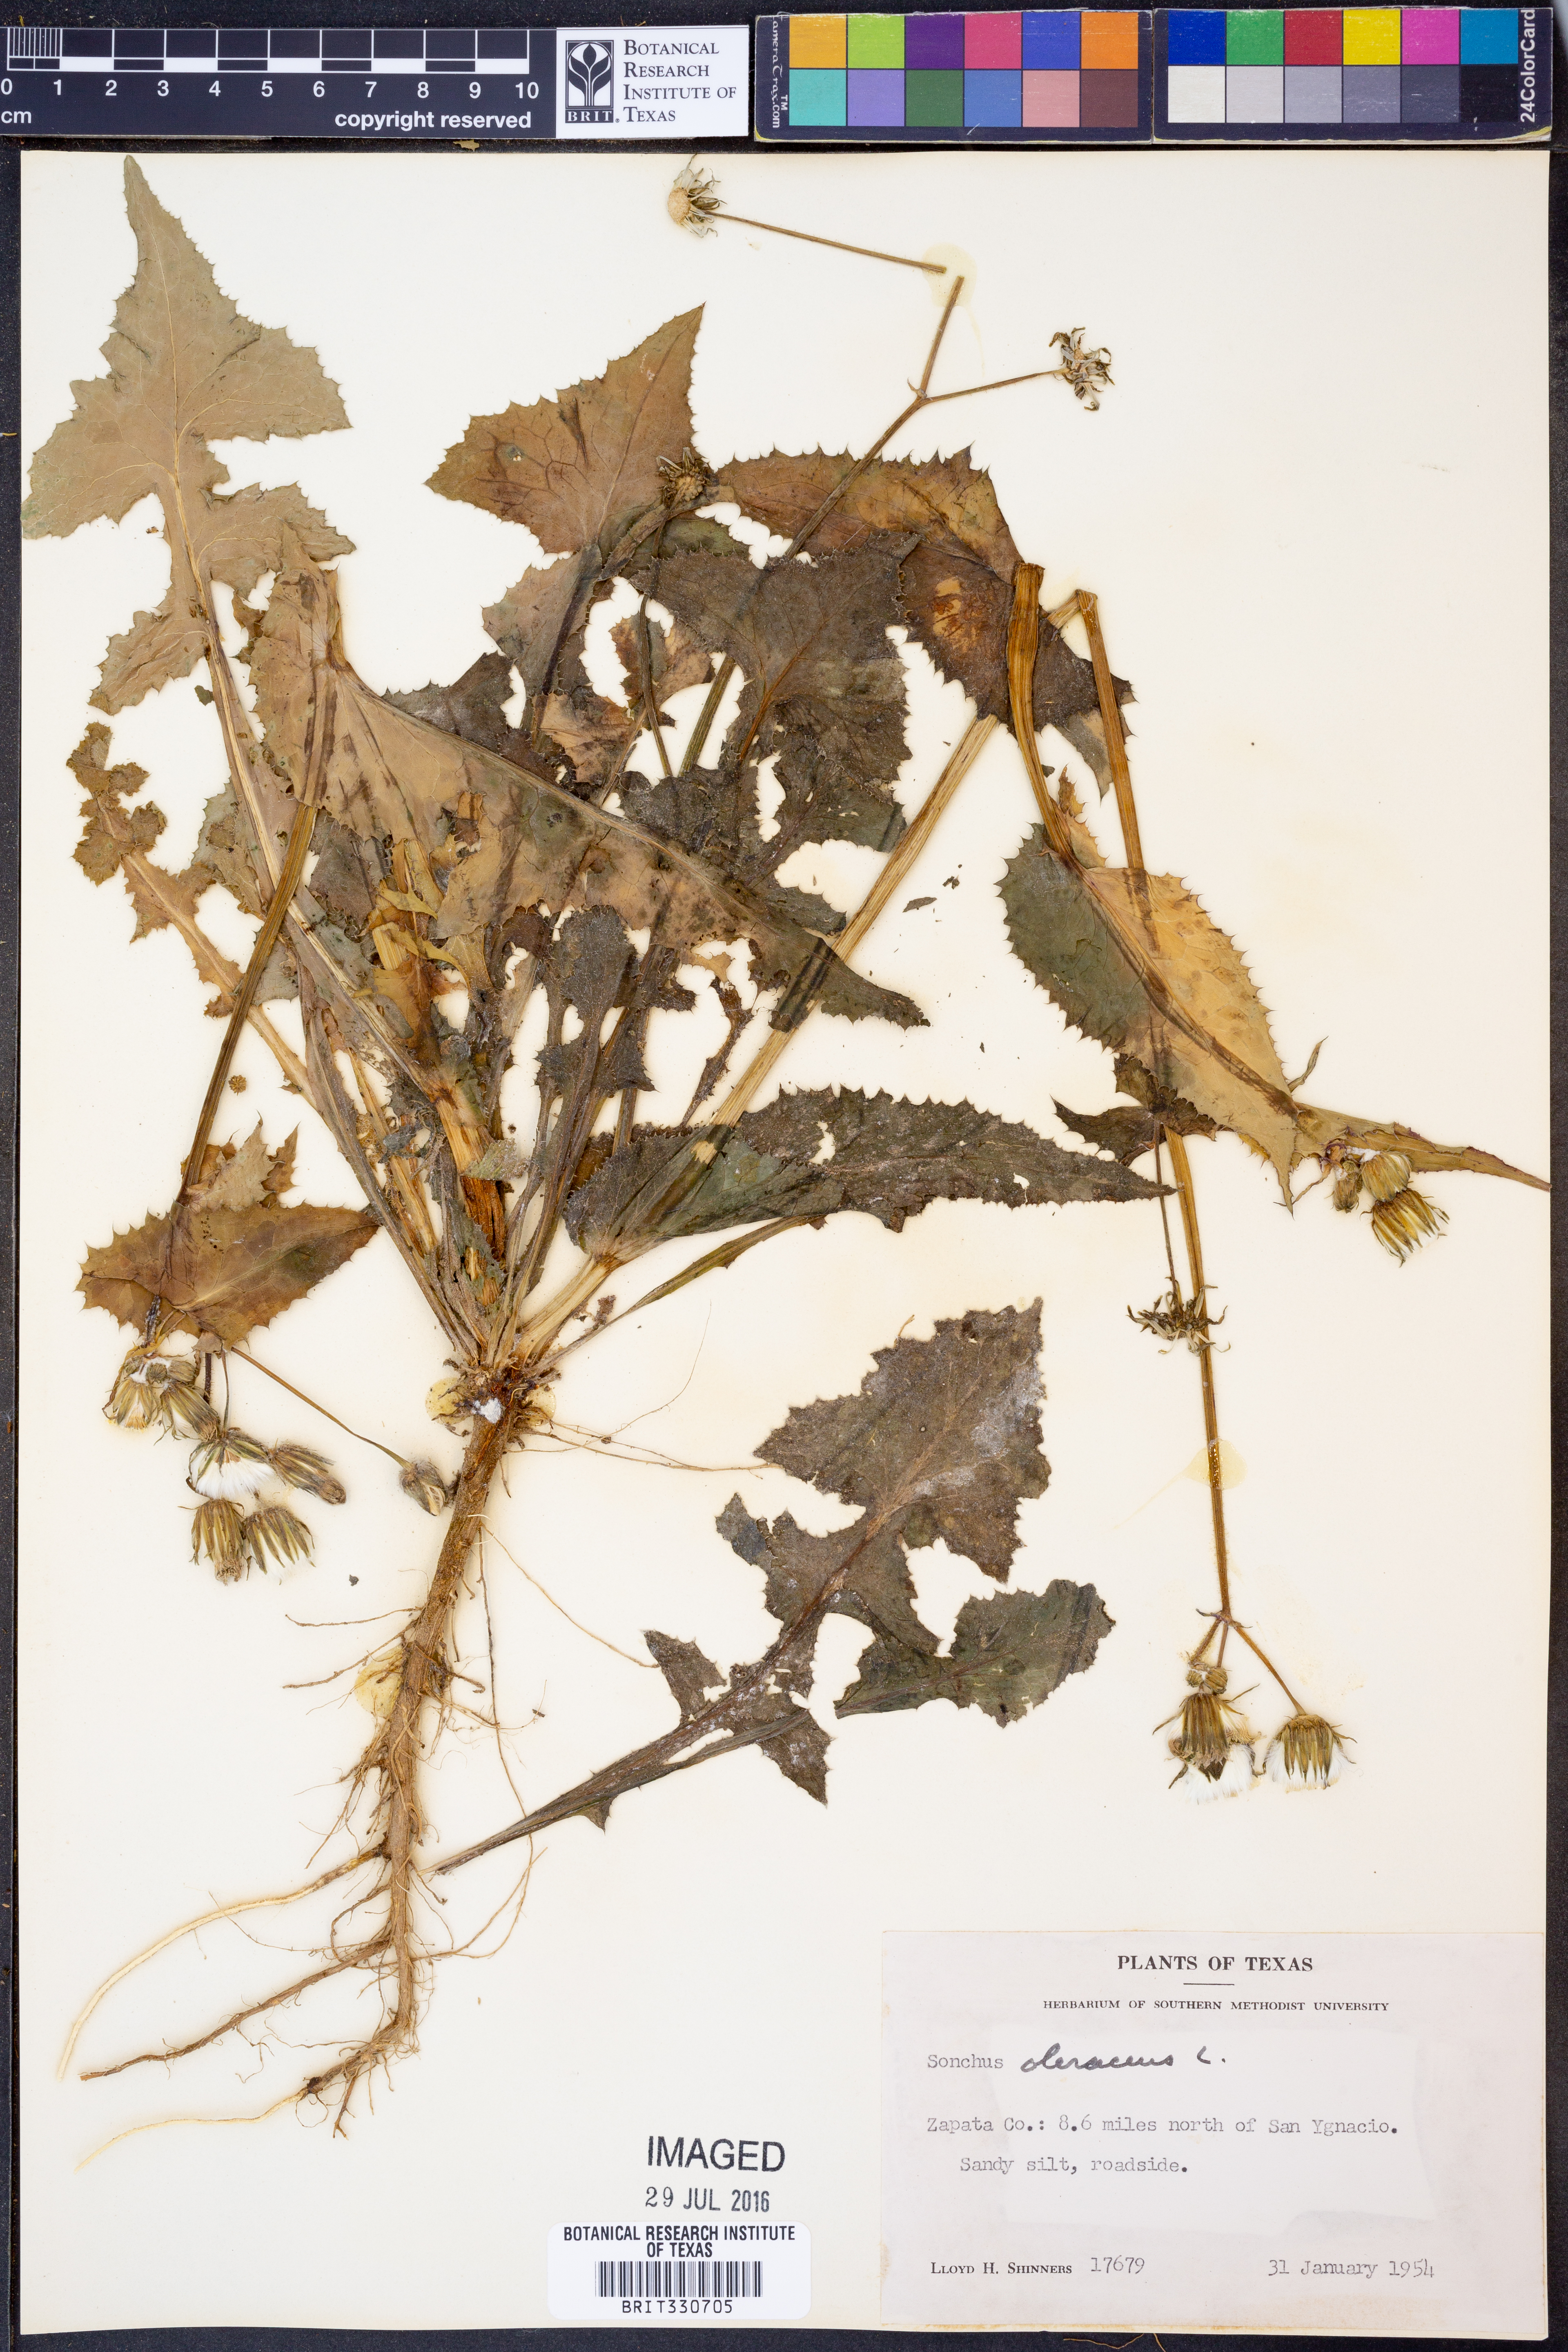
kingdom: Plantae
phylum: Tracheophyta
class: Magnoliopsida
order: Asterales
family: Asteraceae
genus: Sonchus
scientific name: Sonchus oleraceus
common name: Common sowthistle
